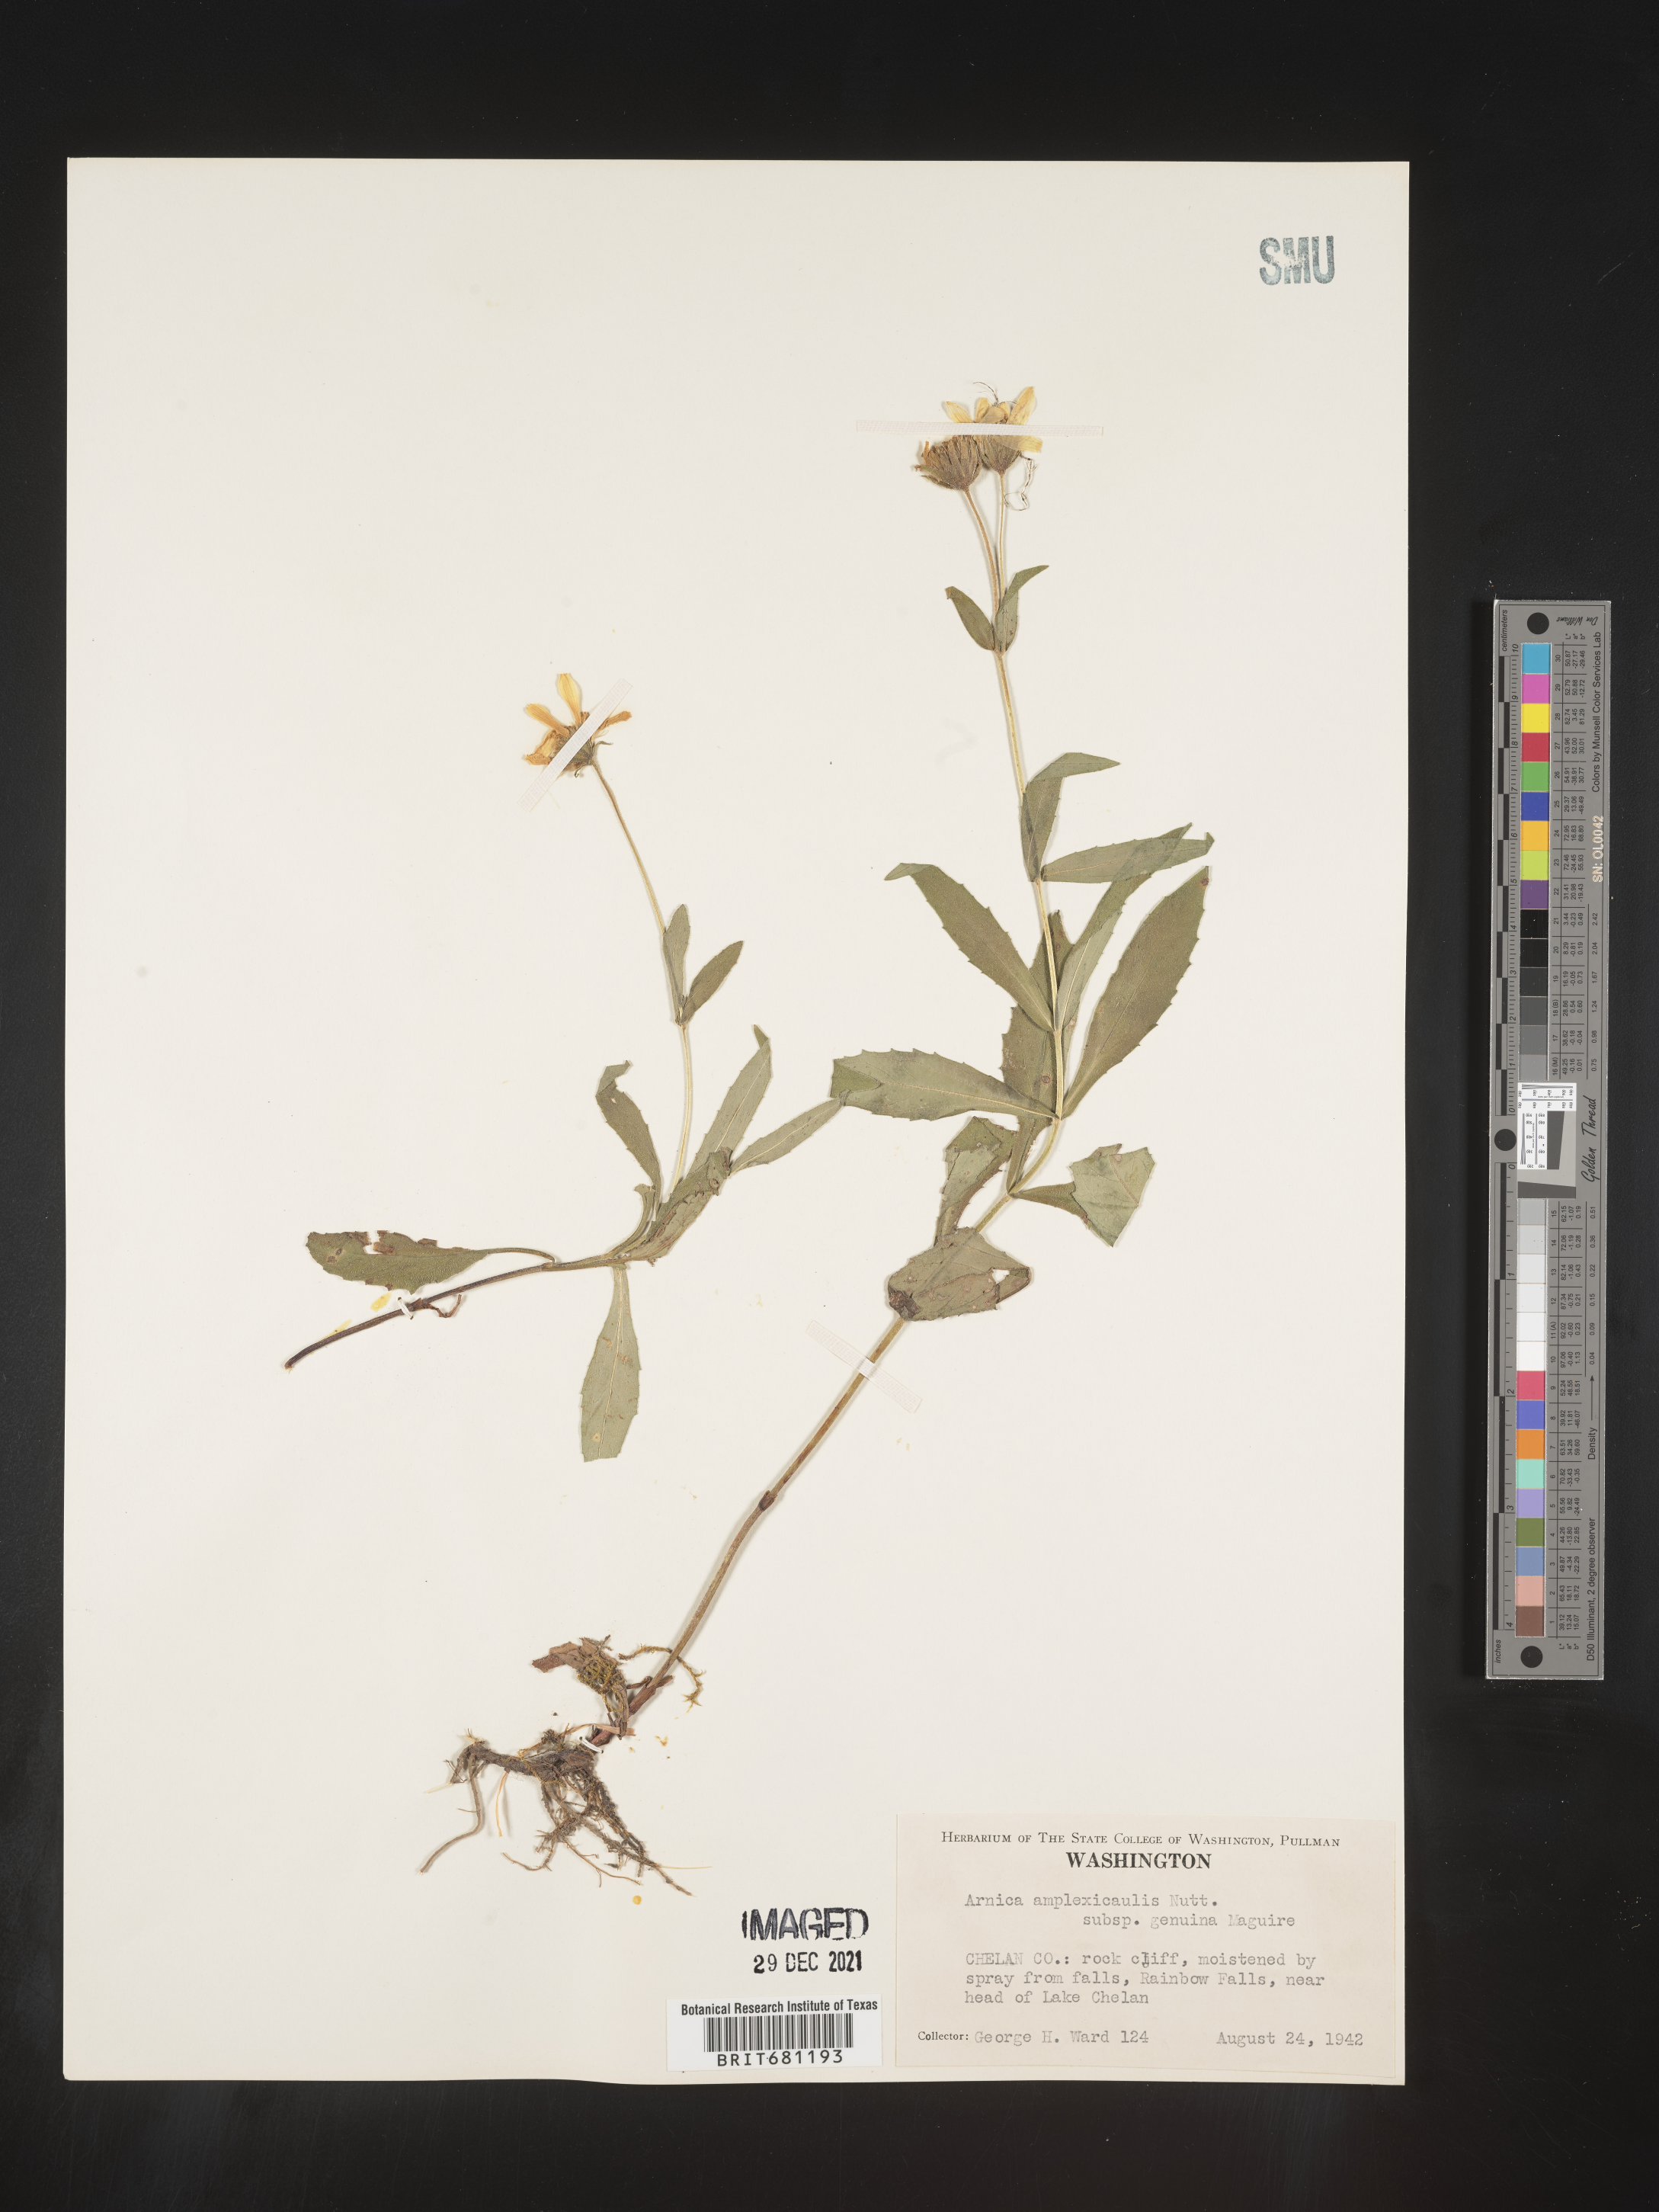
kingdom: Plantae
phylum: Tracheophyta
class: Magnoliopsida
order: Asterales
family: Asteraceae
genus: Arnica
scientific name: Arnica lanceolata
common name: Lance-leaved arnica
